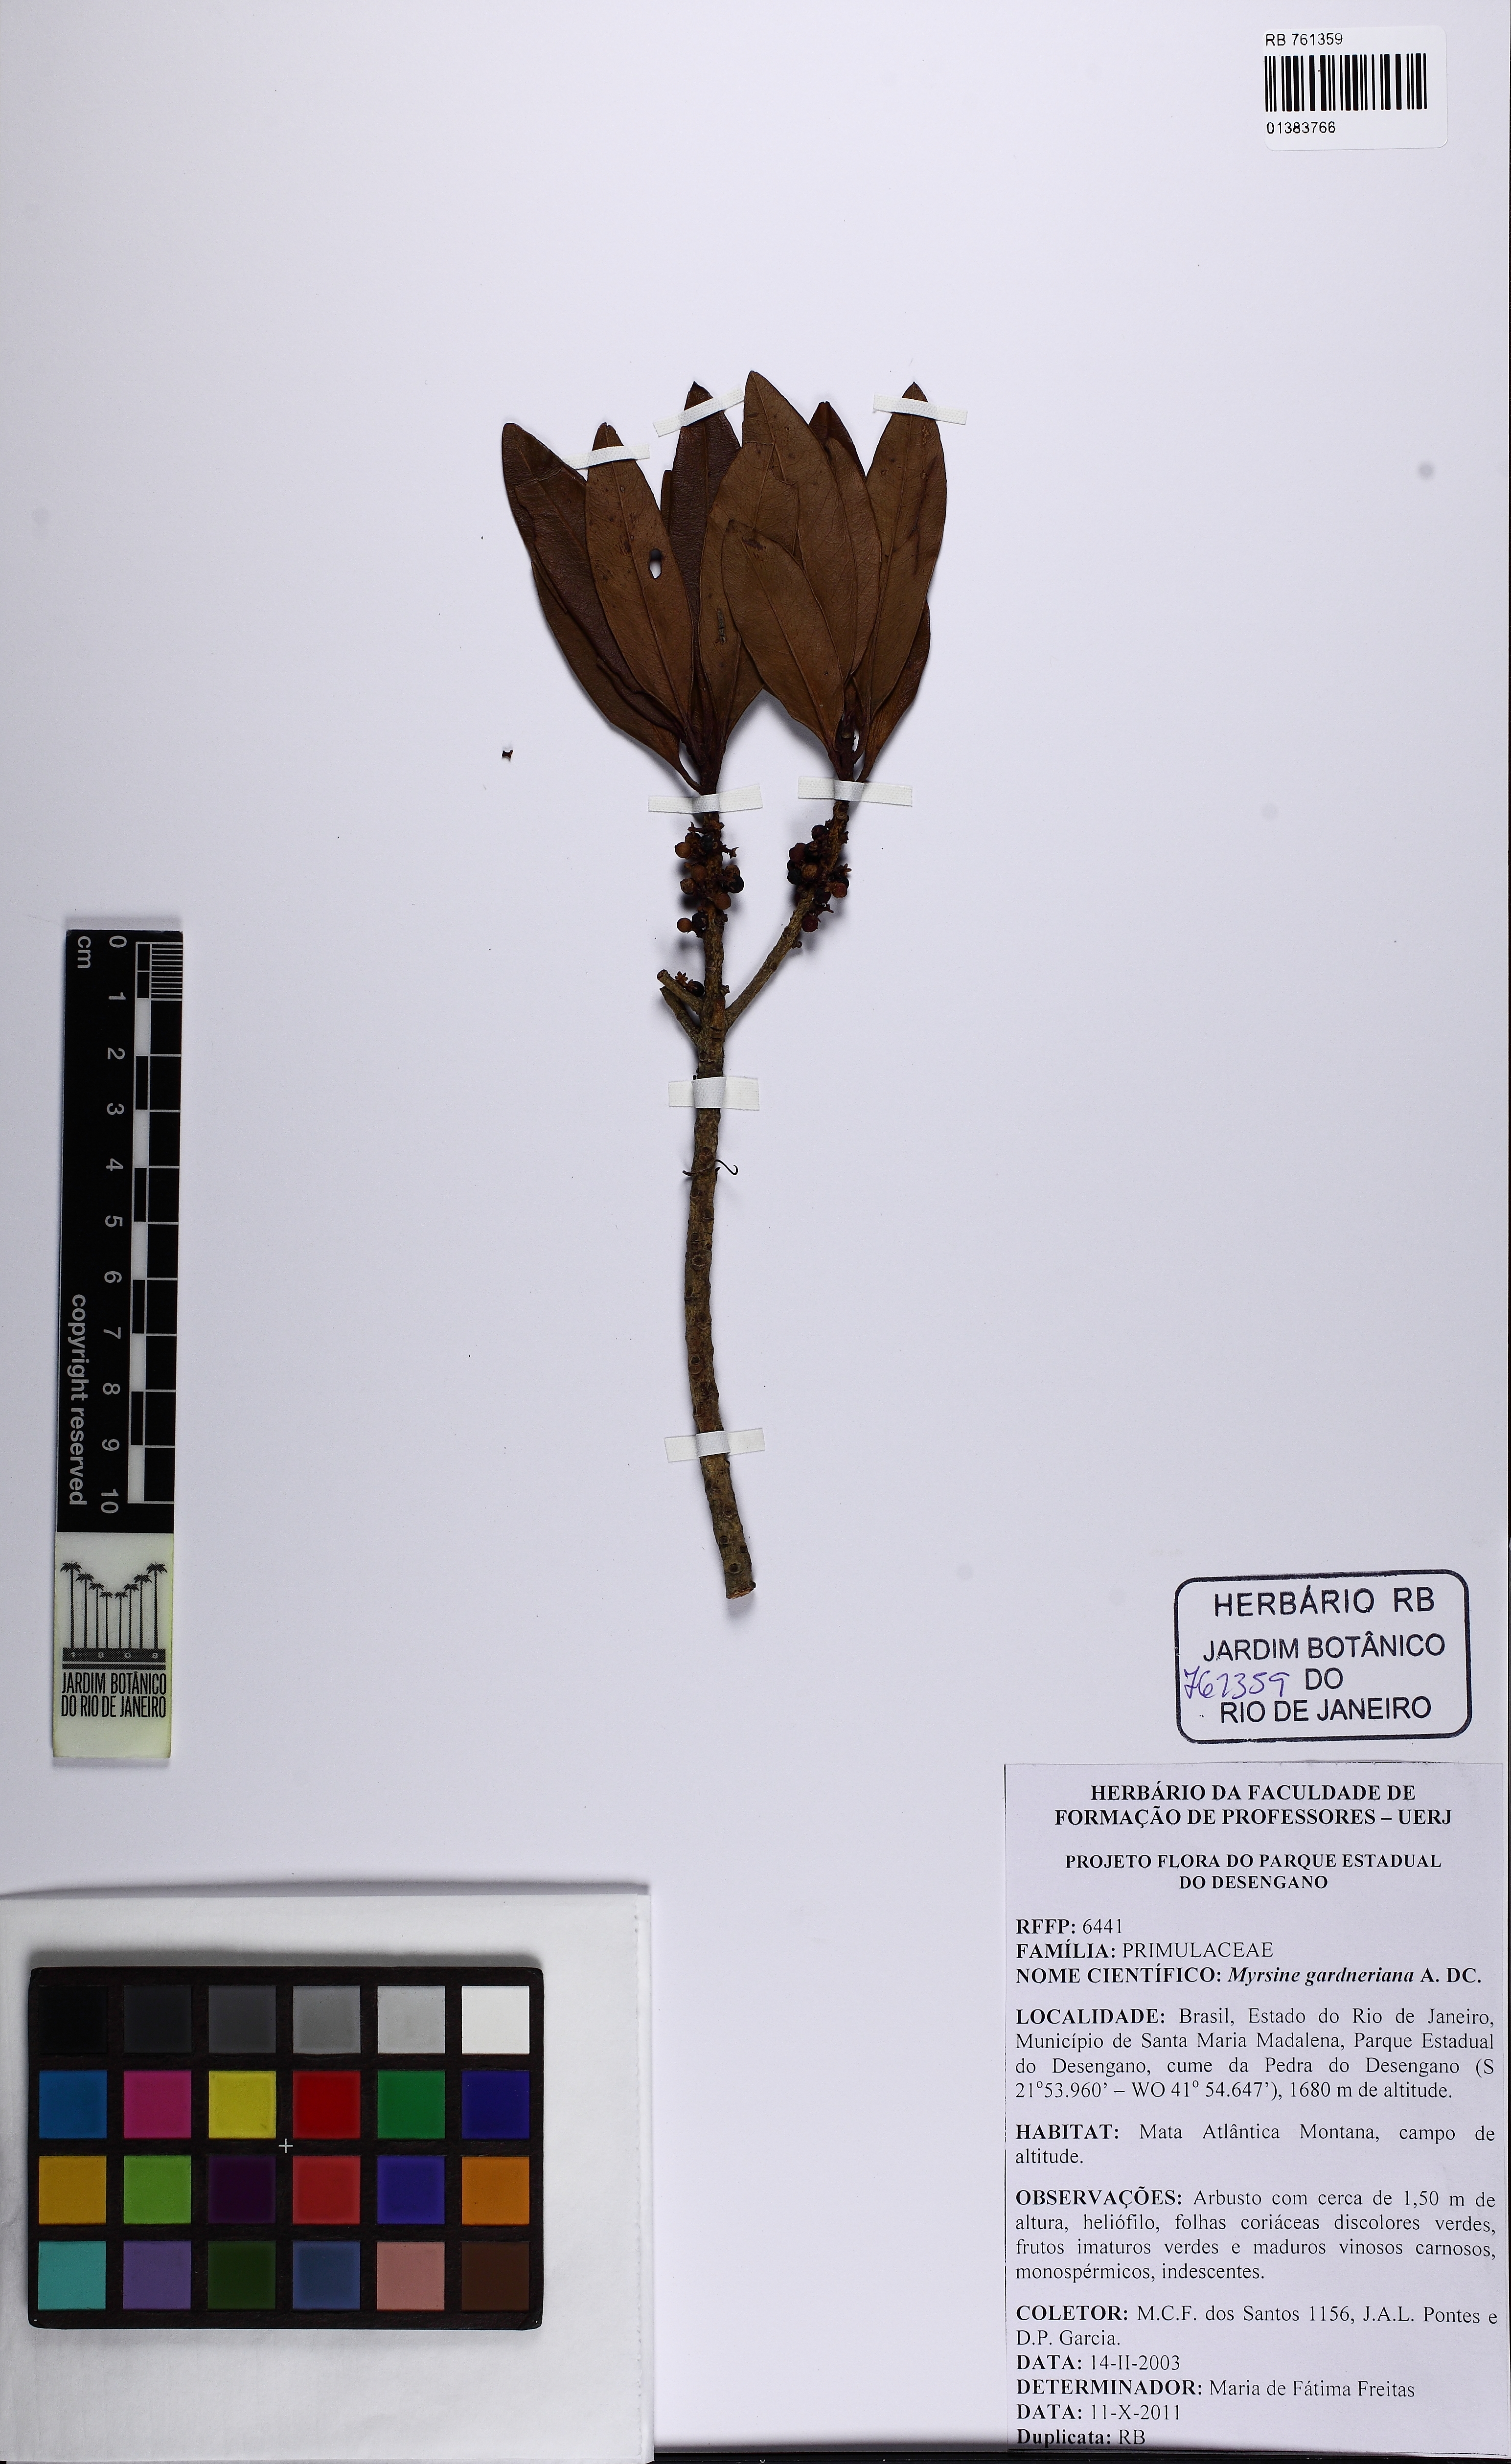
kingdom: Plantae
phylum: Tracheophyta
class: Magnoliopsida
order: Ericales
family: Primulaceae
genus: Myrsine
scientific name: Myrsine gardneriana
